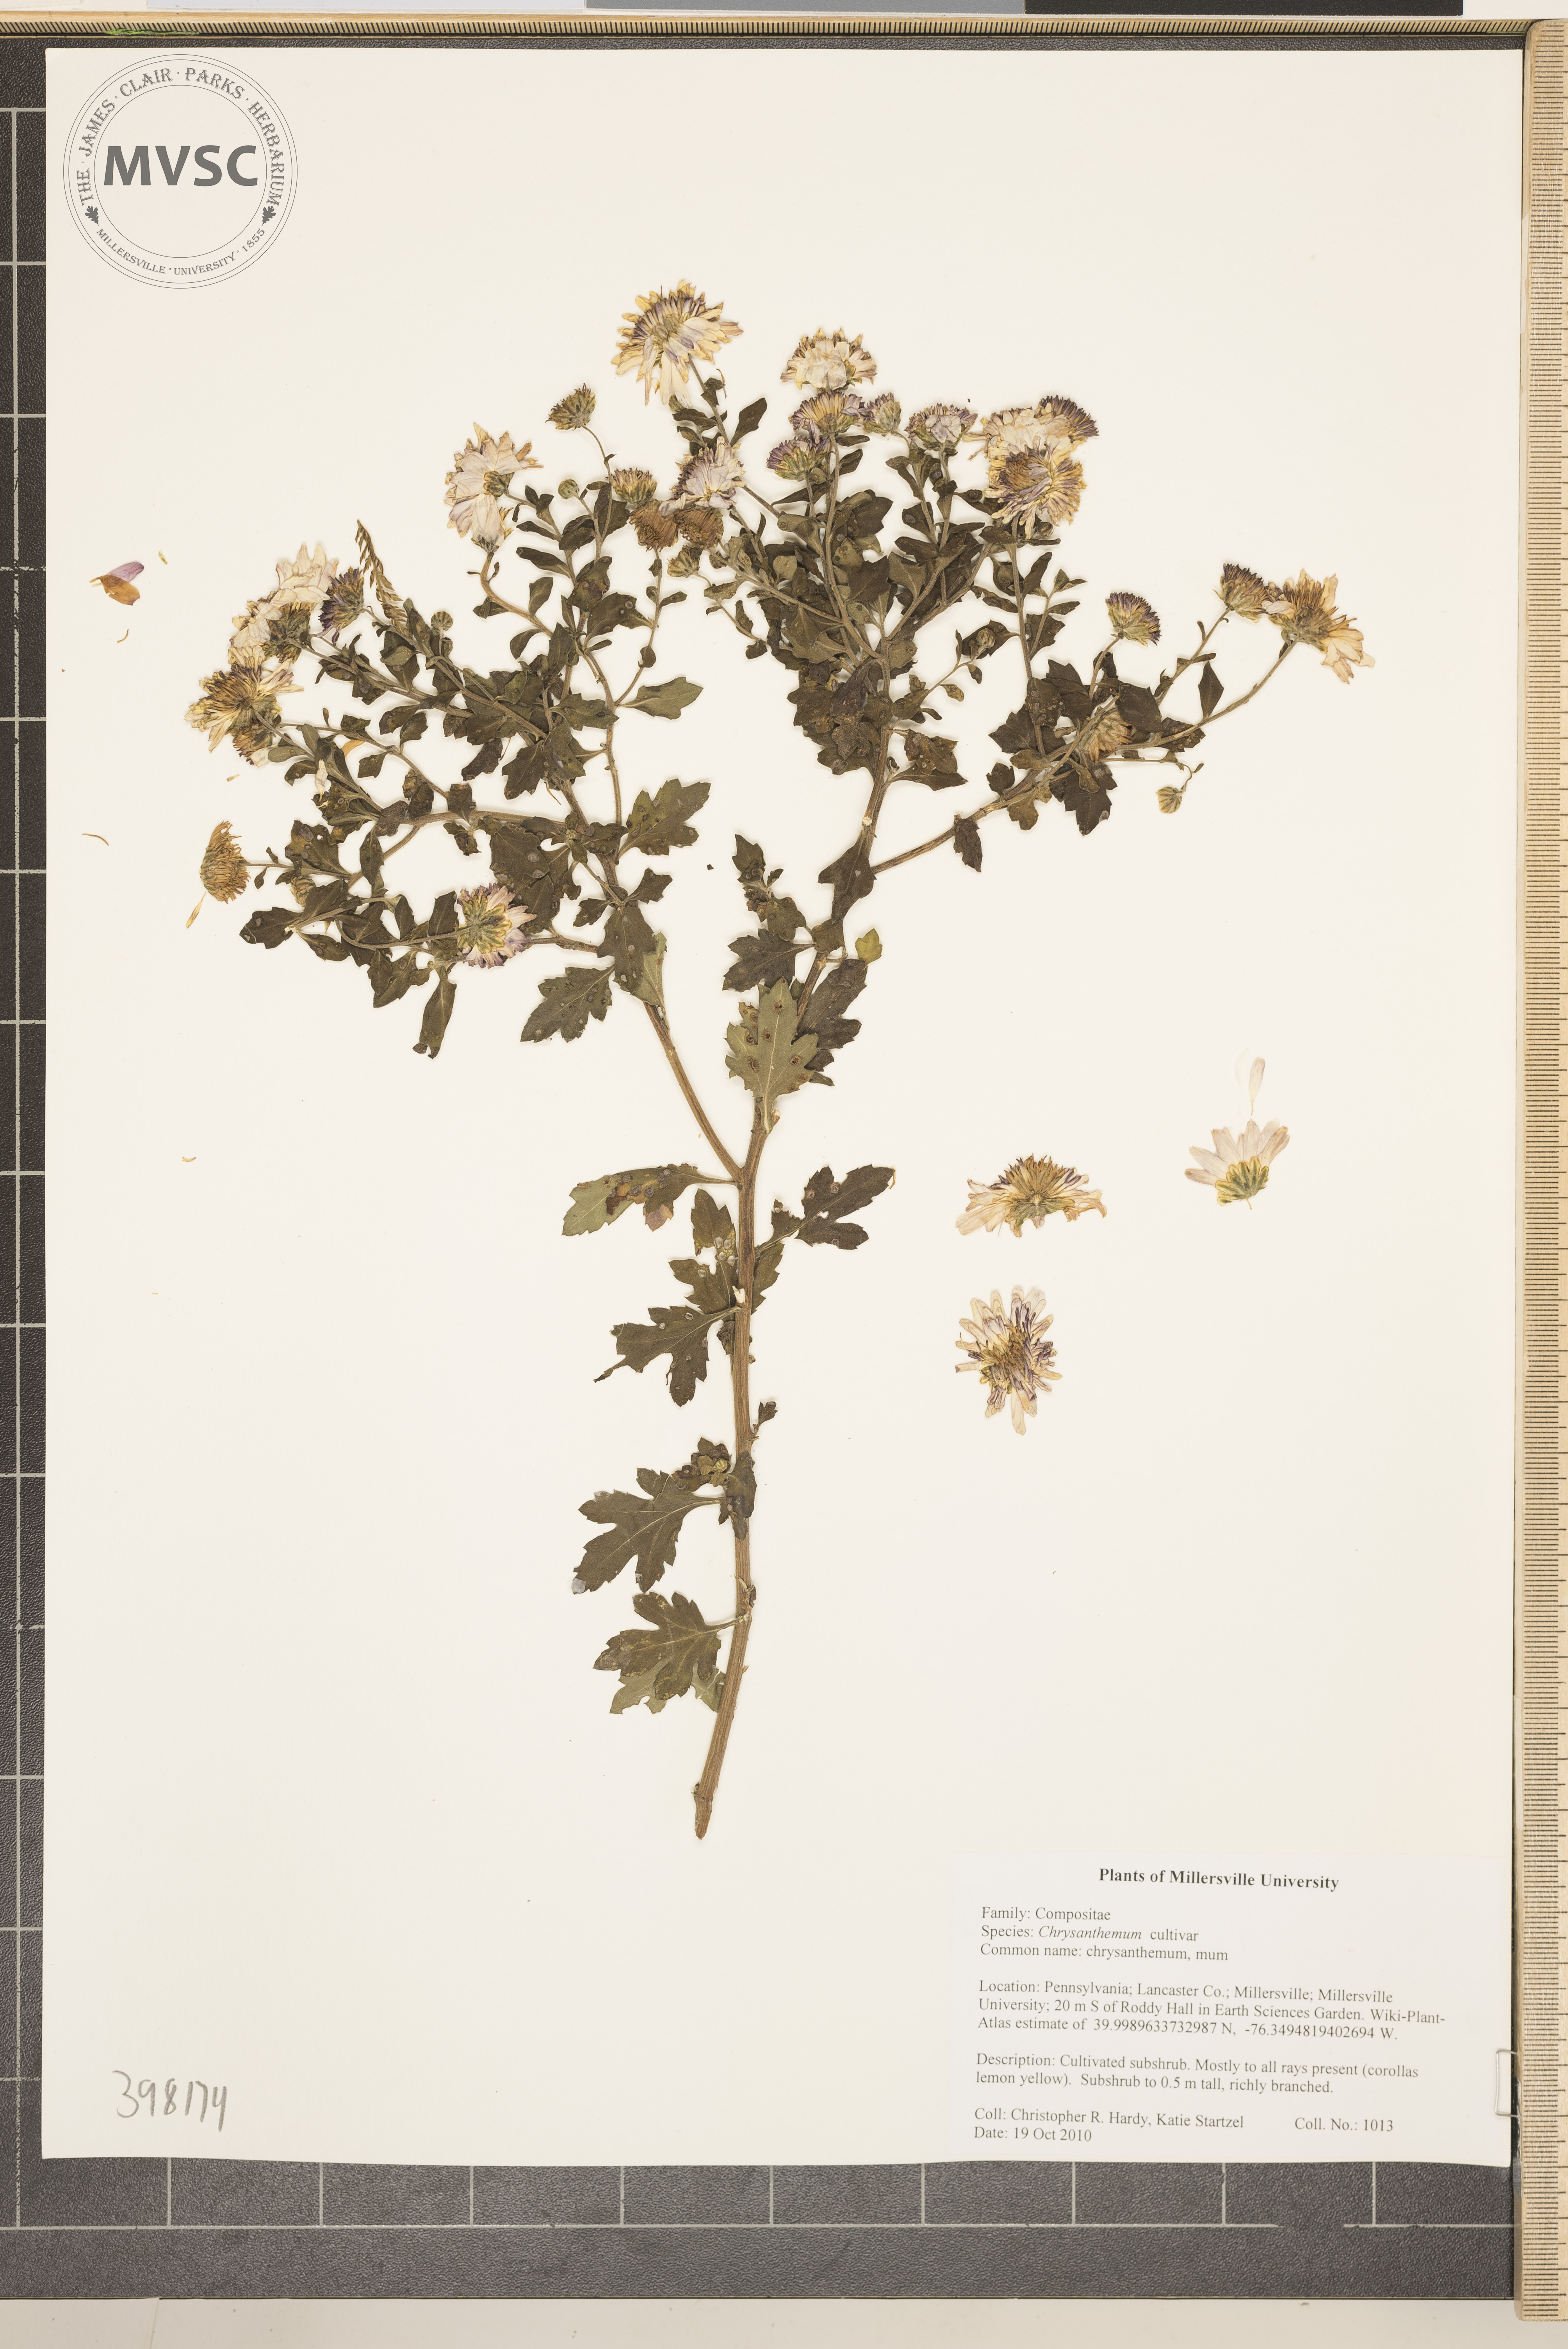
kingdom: Plantae
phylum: Tracheophyta
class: Magnoliopsida
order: Asterales
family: Asteraceae
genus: Chrysanthemum
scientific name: Chrysanthemum
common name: mum
